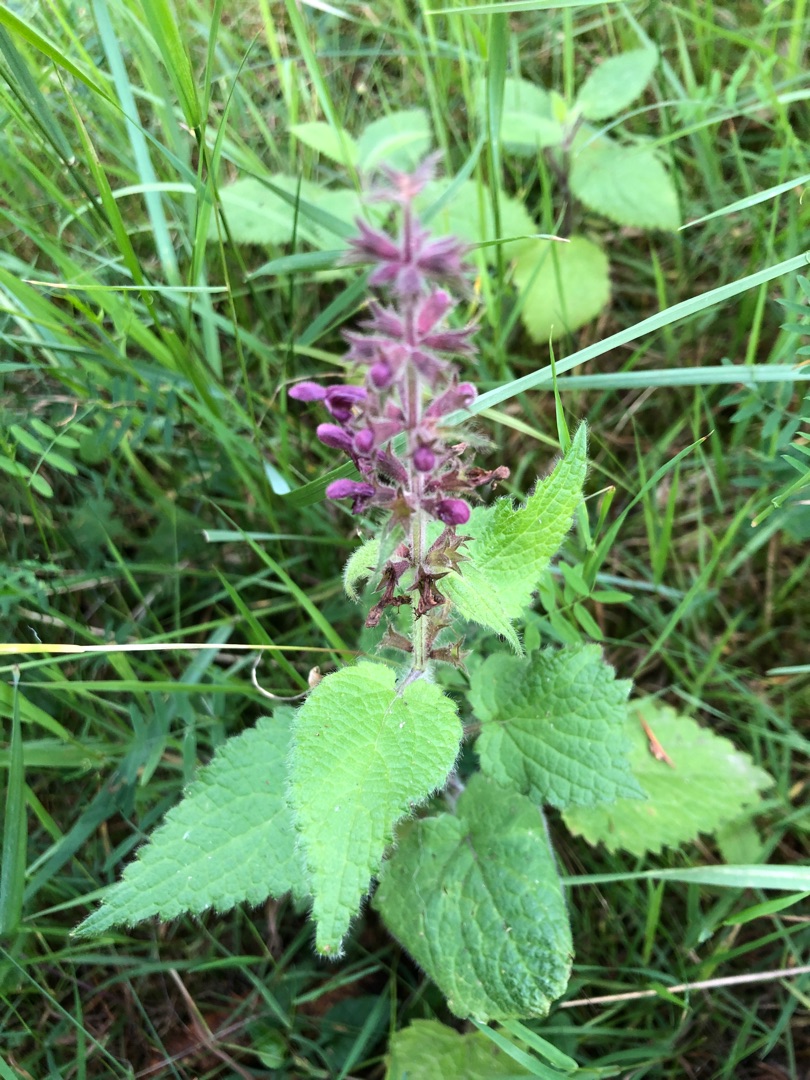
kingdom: Plantae
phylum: Tracheophyta
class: Magnoliopsida
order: Lamiales
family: Lamiaceae
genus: Stachys
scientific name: Stachys sylvatica
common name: Skov-galtetand
